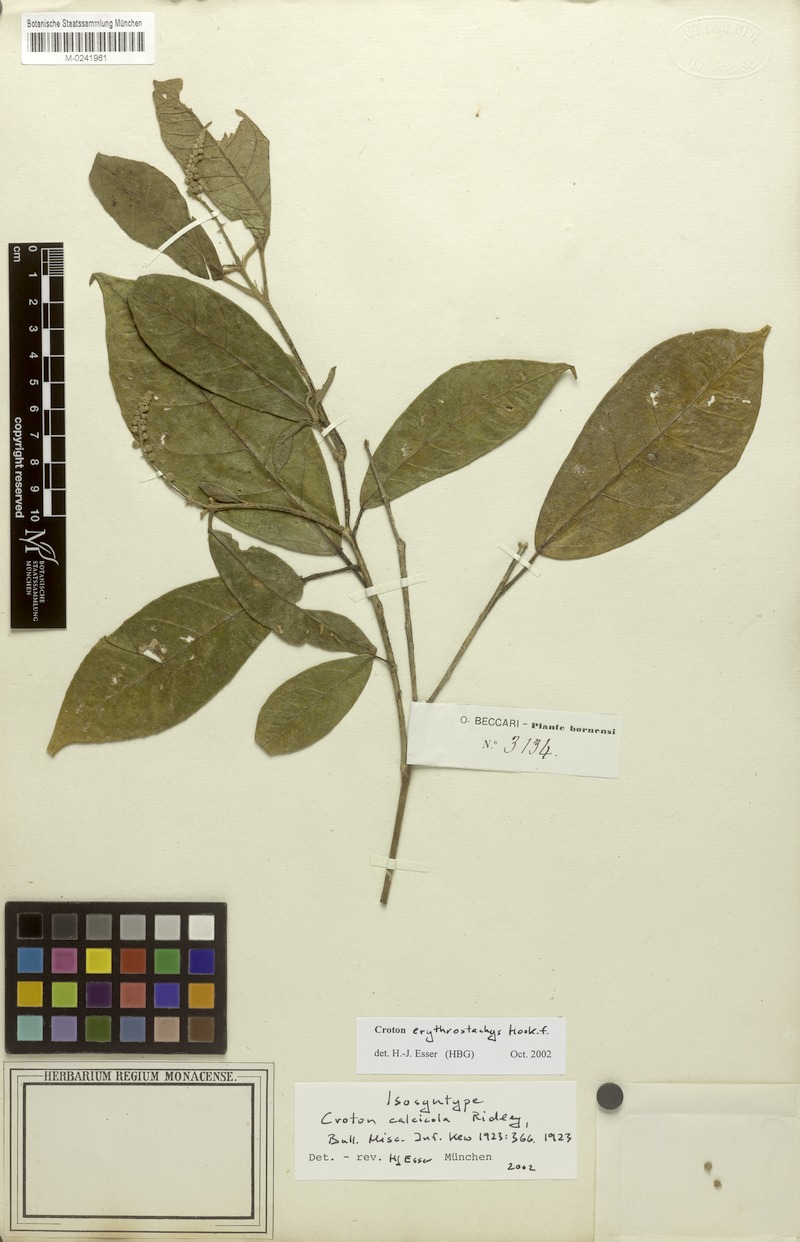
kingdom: Plantae
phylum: Tracheophyta
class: Magnoliopsida
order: Malpighiales
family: Euphorbiaceae
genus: Croton
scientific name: Croton erythrostachys
